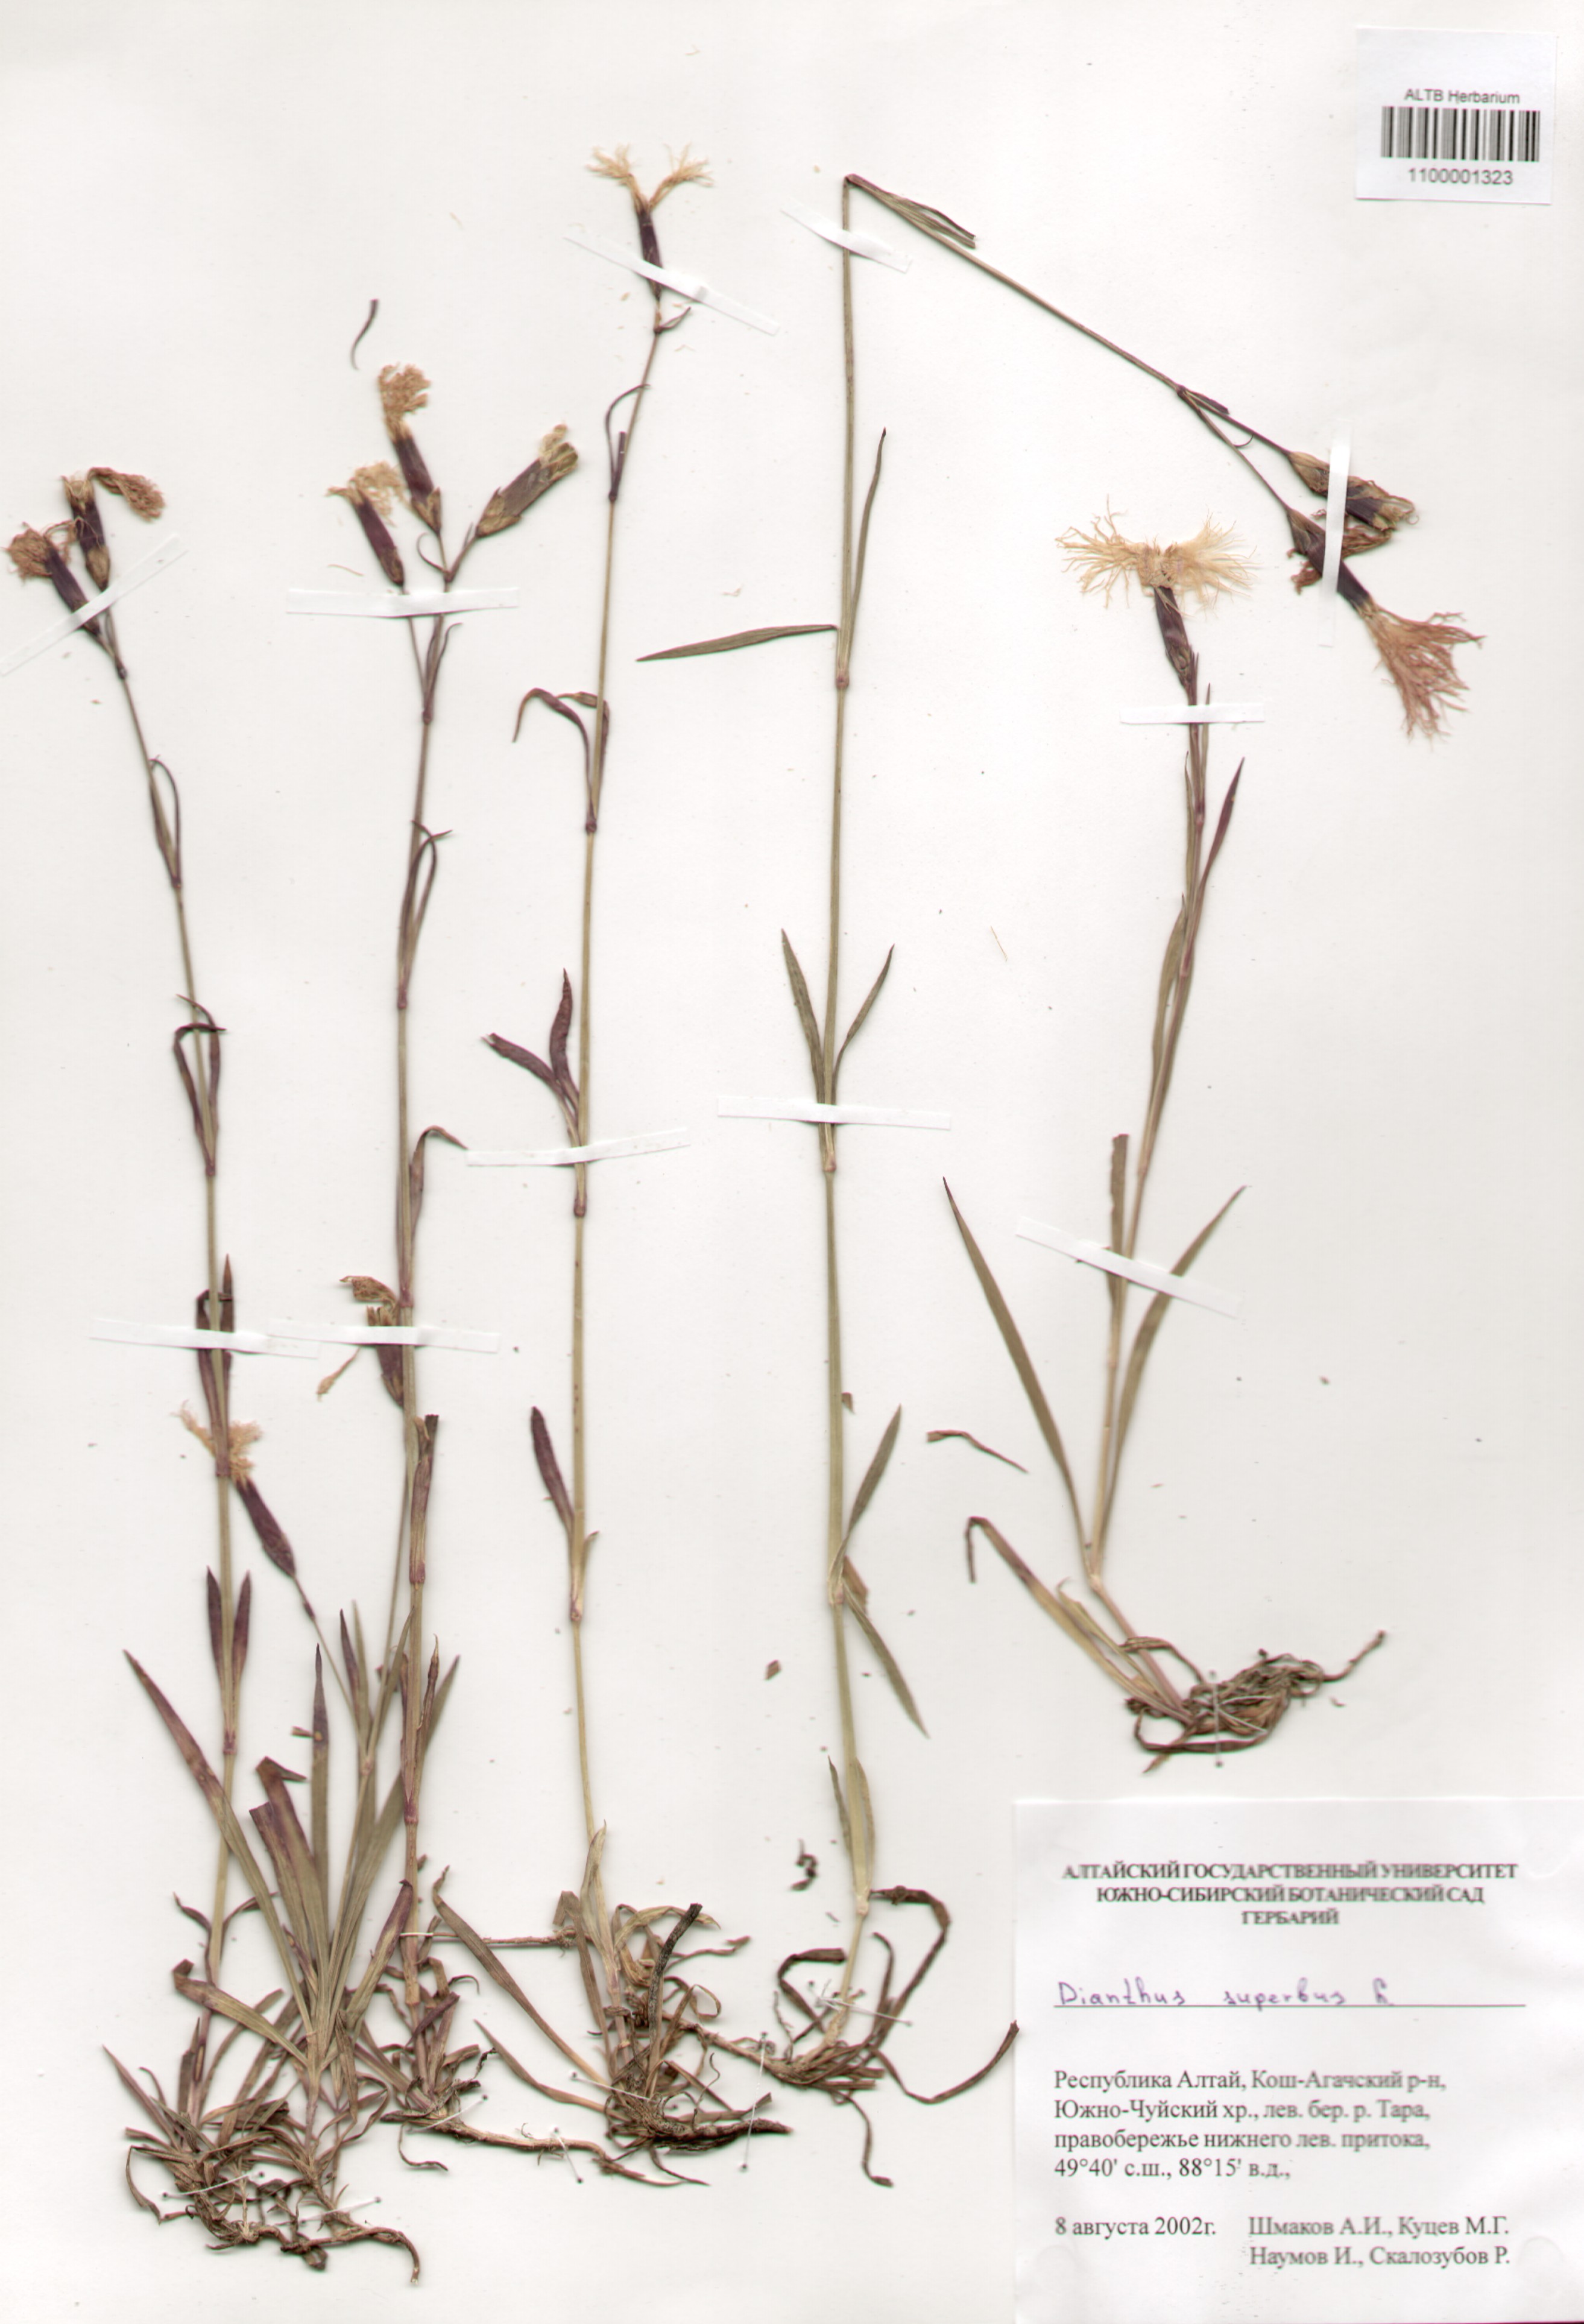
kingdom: Plantae
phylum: Tracheophyta
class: Magnoliopsida
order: Caryophyllales
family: Caryophyllaceae
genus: Dianthus
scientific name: Dianthus superbus
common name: Fringed pink
